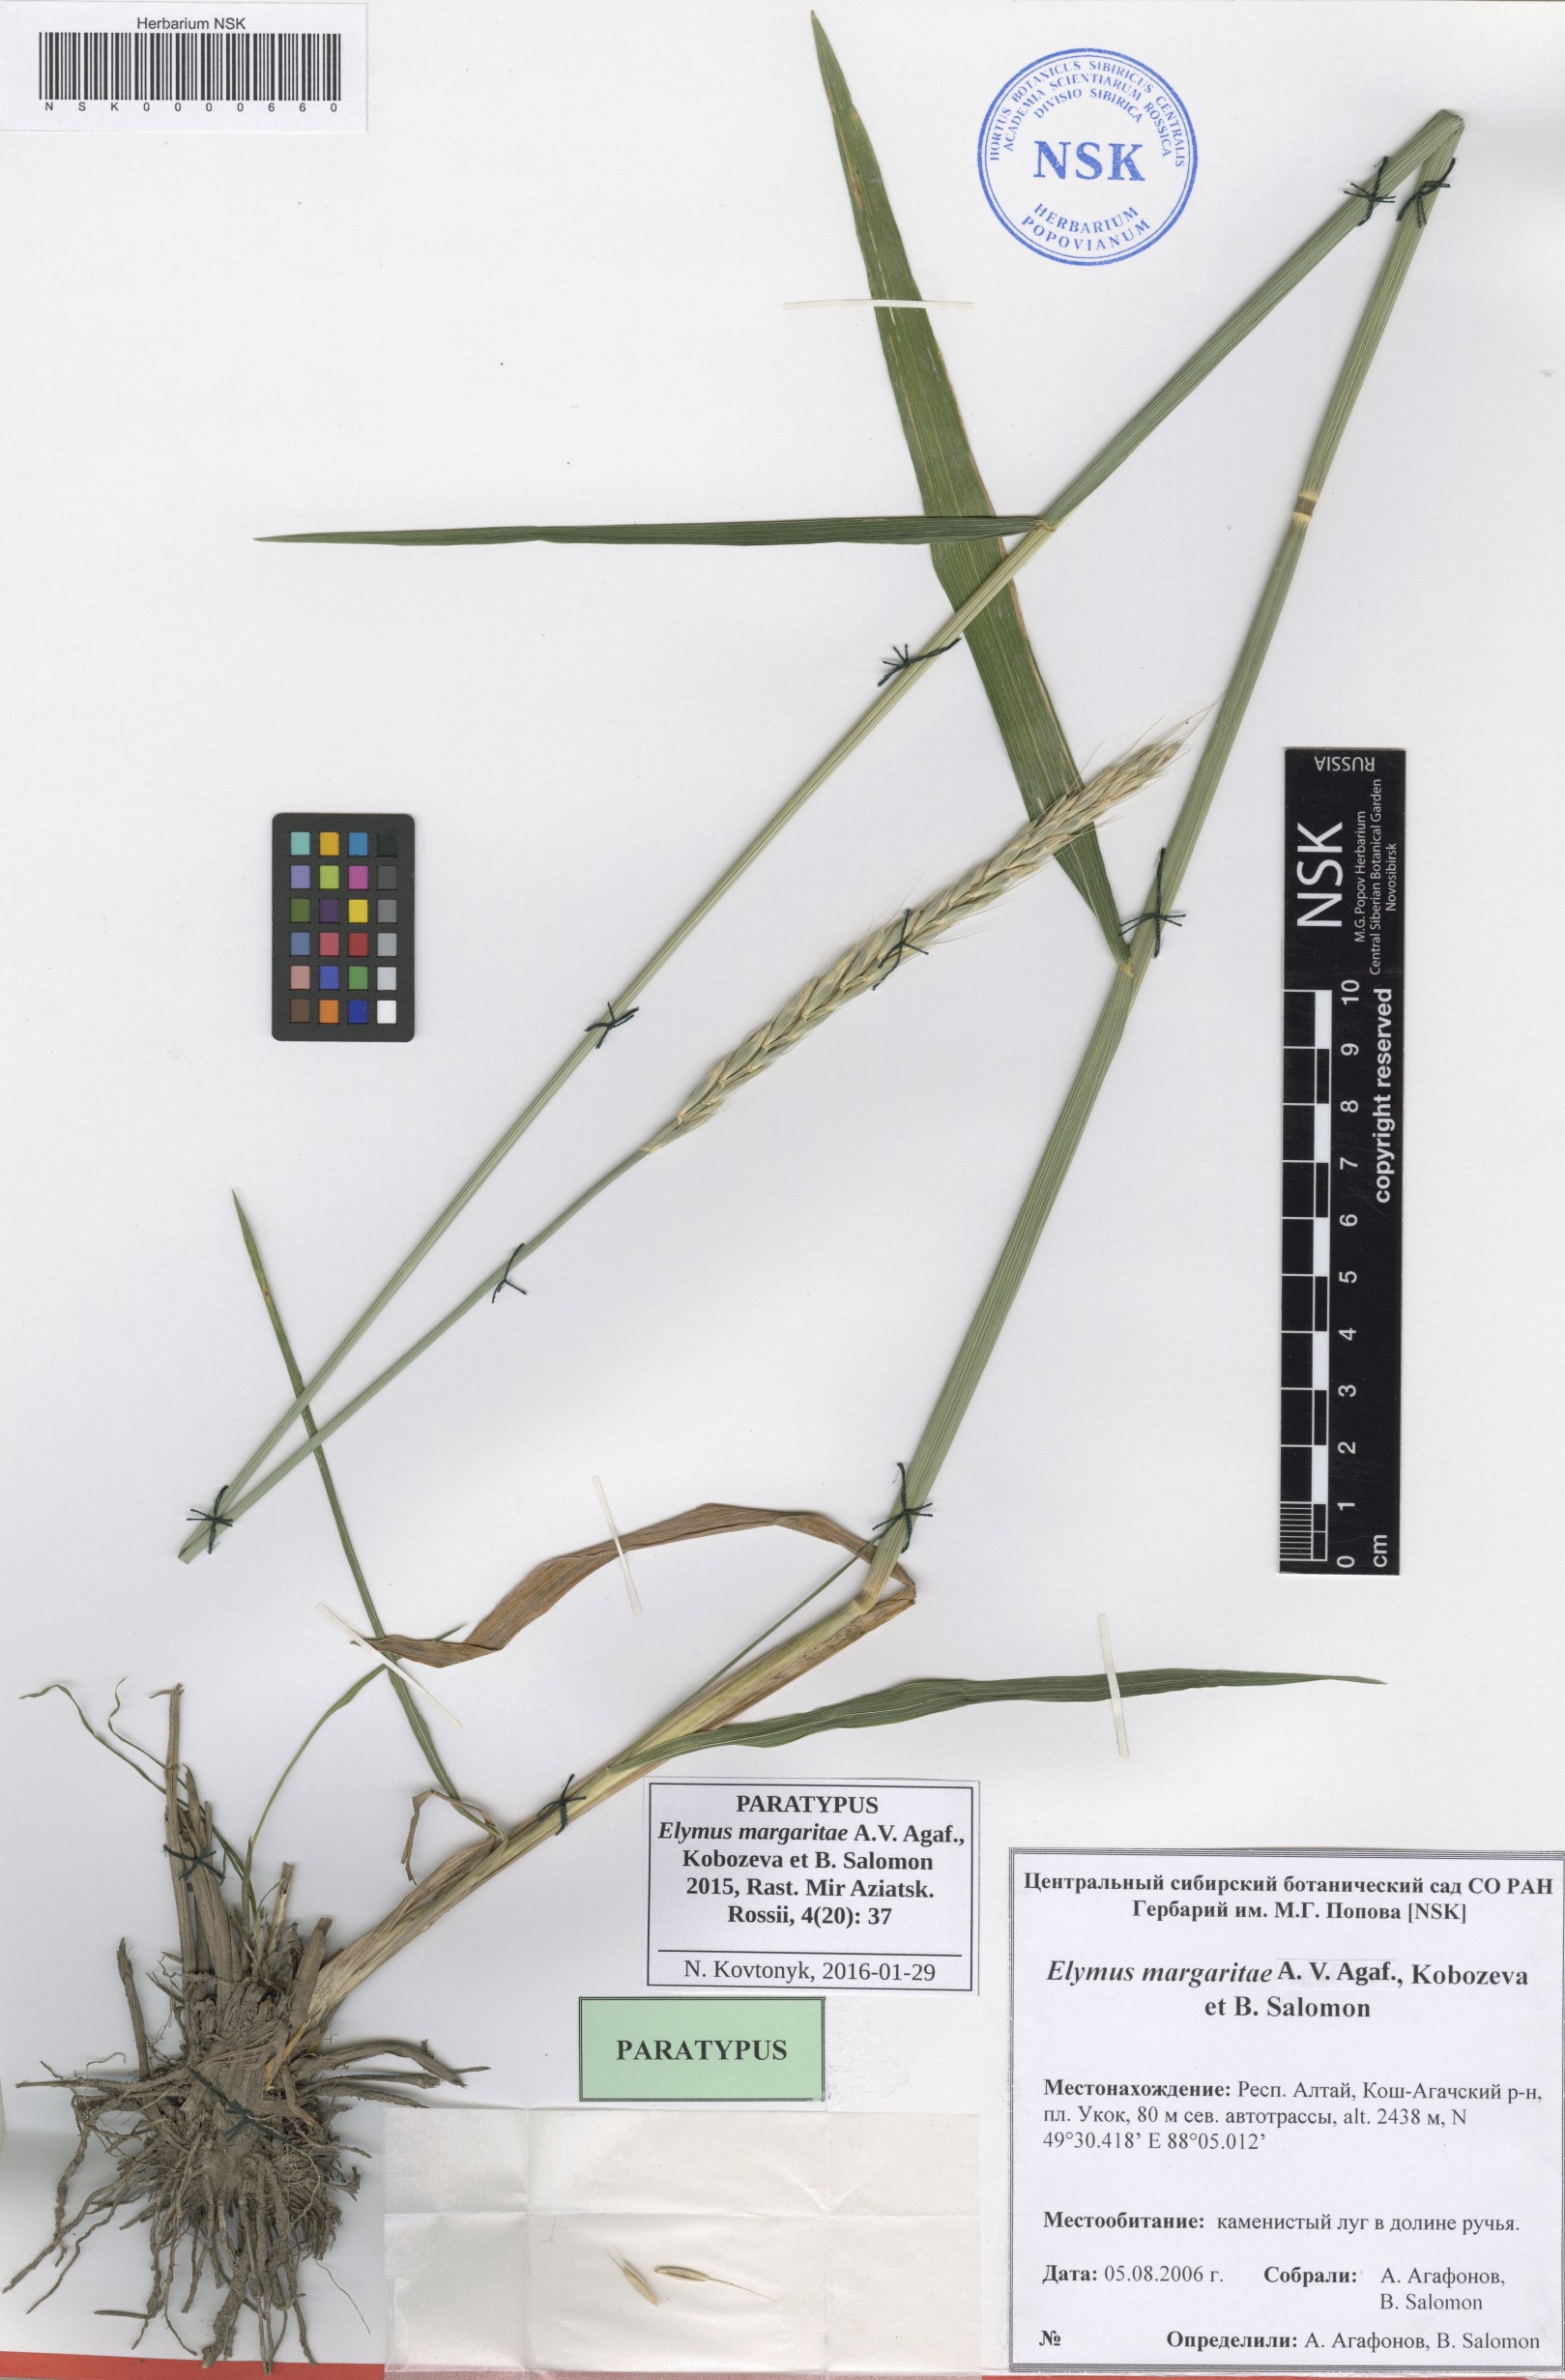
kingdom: Plantae
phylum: Tracheophyta
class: Liliopsida
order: Poales
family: Poaceae
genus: Elymus
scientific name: Elymus margaritae
